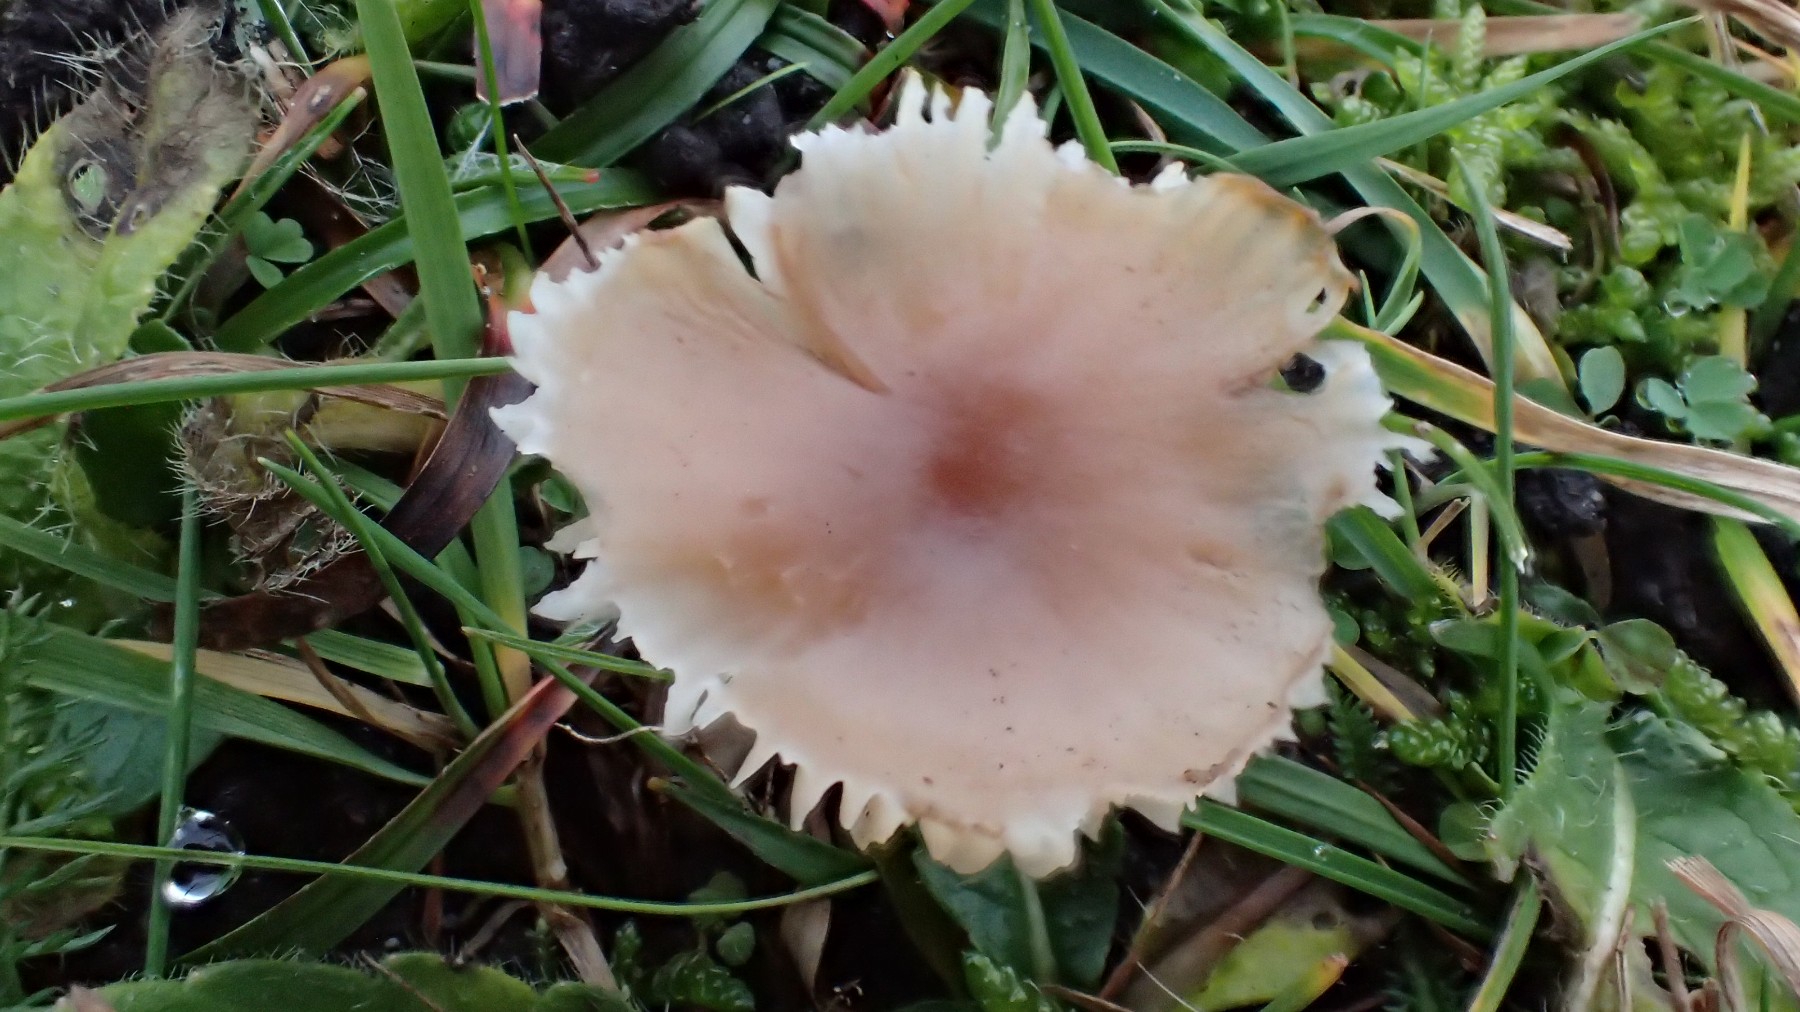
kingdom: Fungi
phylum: Basidiomycota
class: Agaricomycetes
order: Agaricales
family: Hygrophoraceae
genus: Cuphophyllus
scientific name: Cuphophyllus colemannianus
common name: rødbrun vokshat
